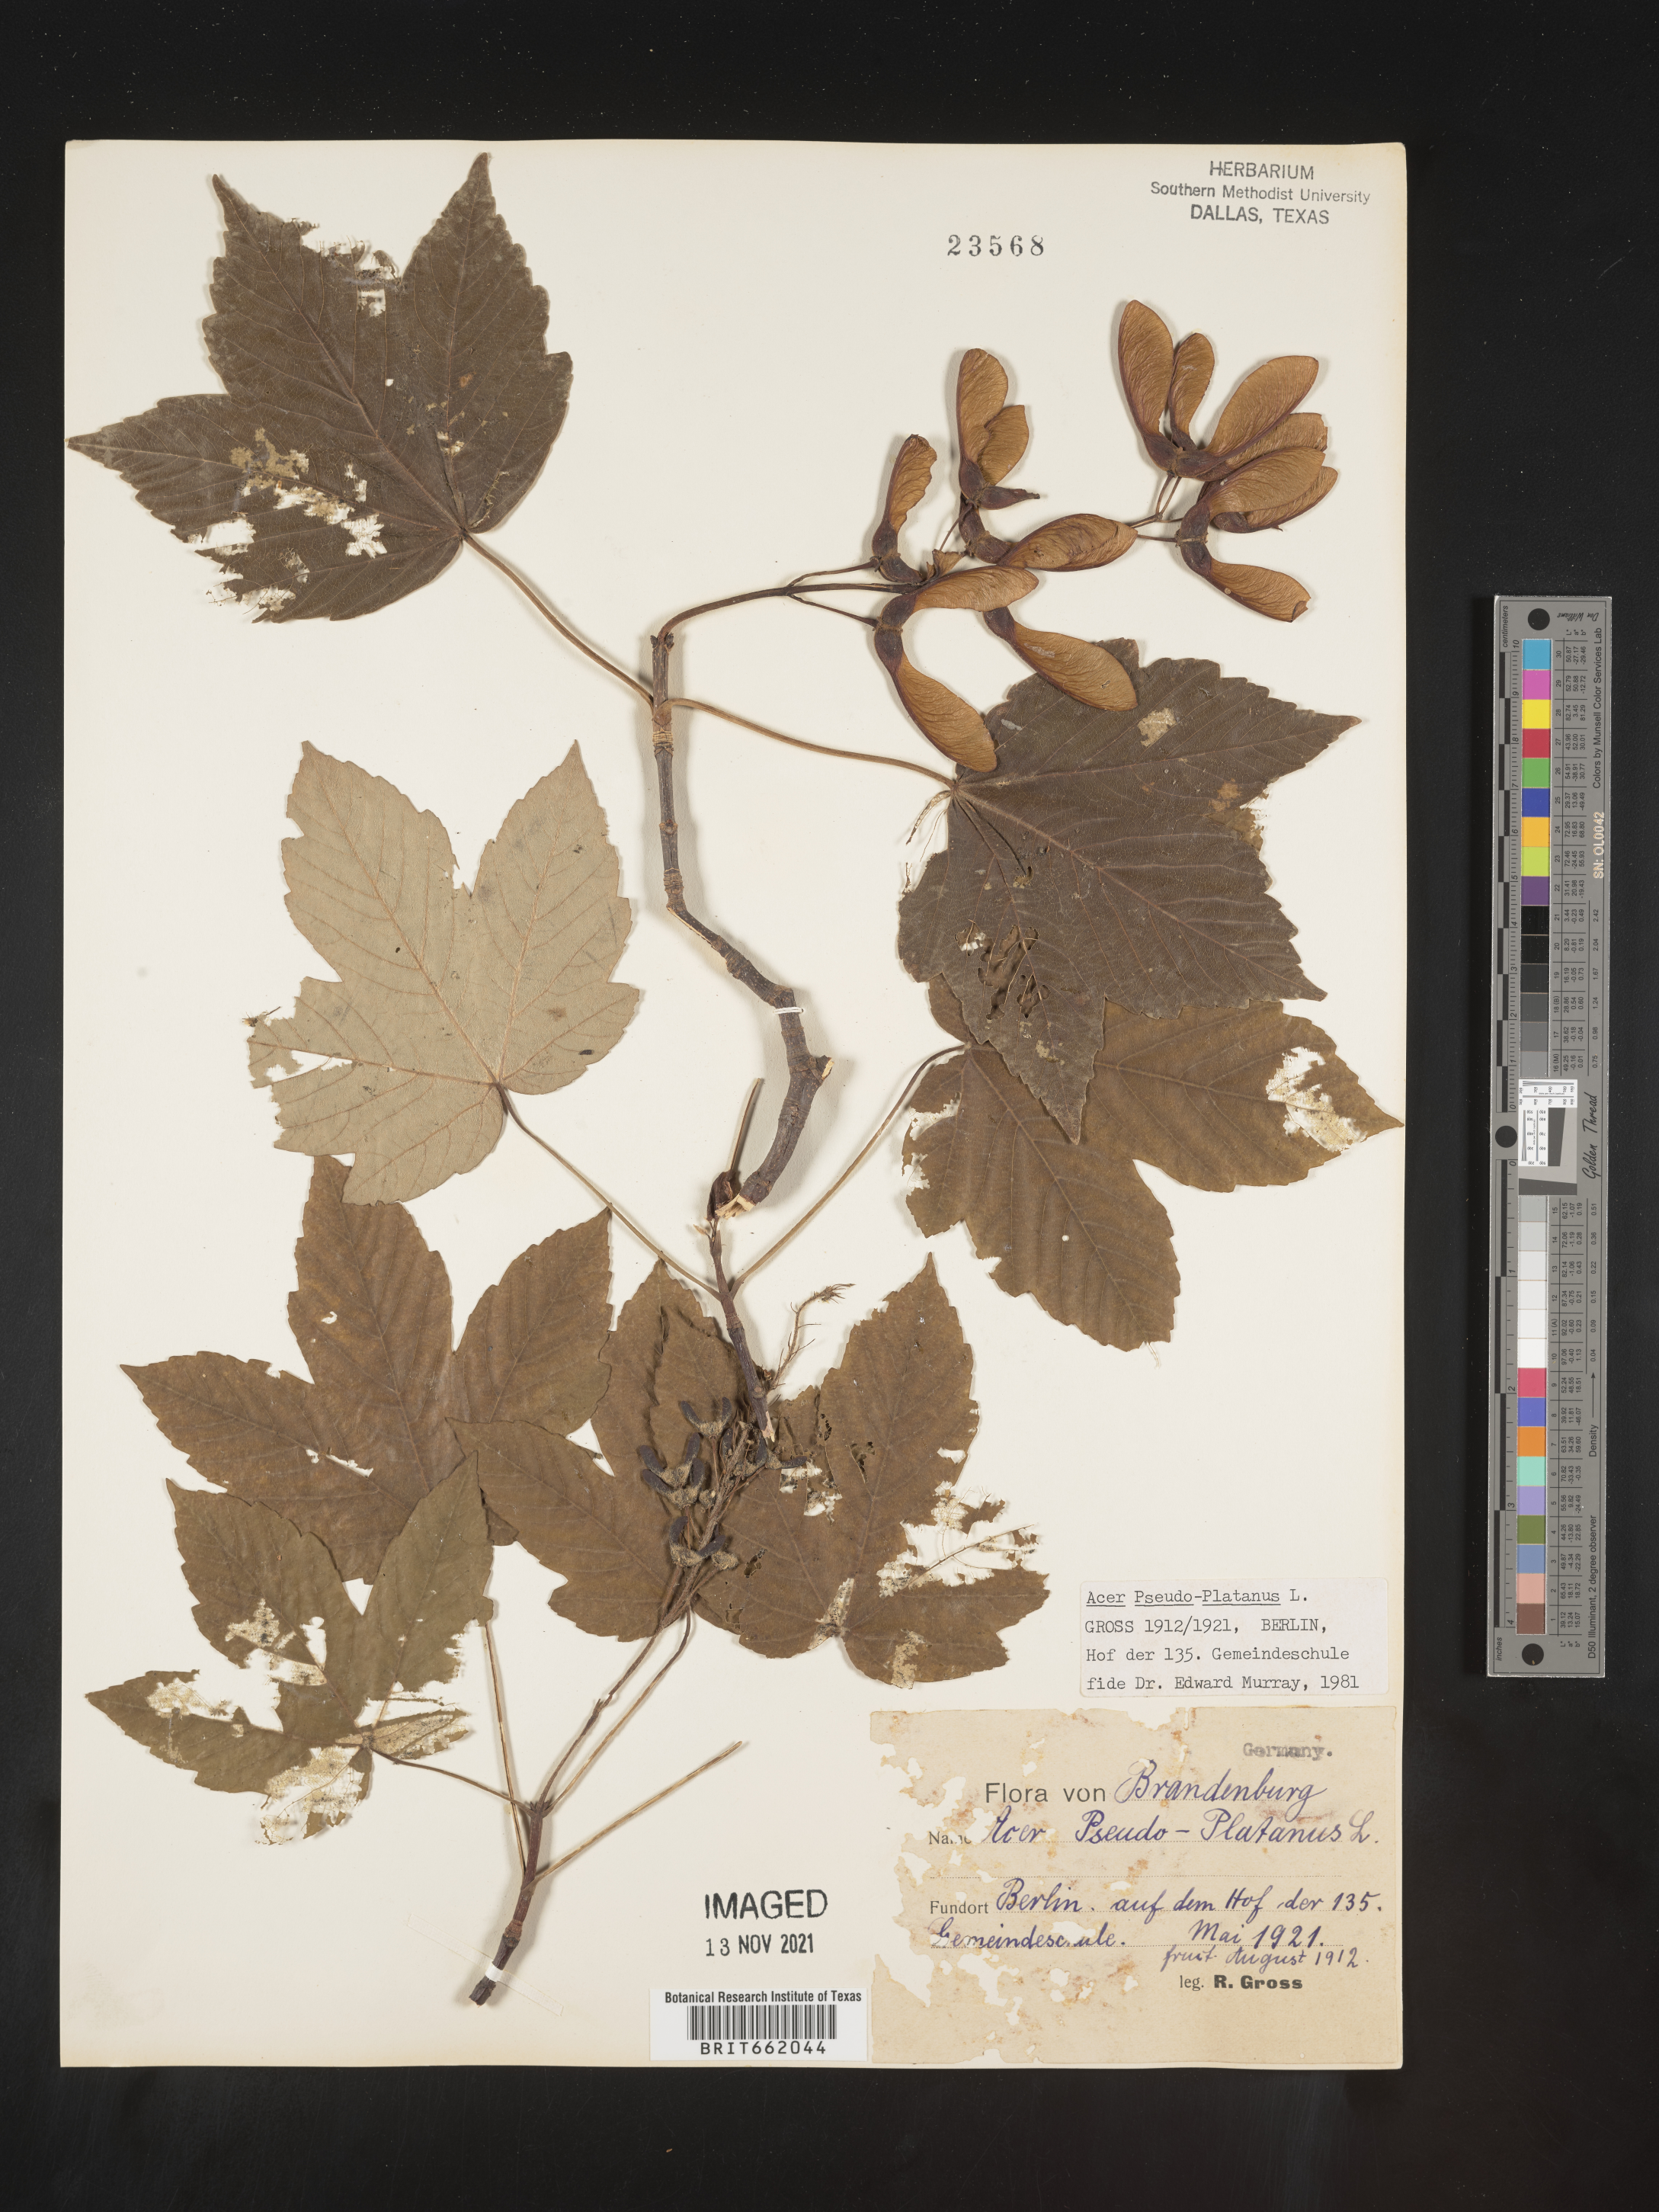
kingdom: Plantae
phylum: Tracheophyta
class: Magnoliopsida
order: Sapindales
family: Sapindaceae
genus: Acer
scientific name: Acer
